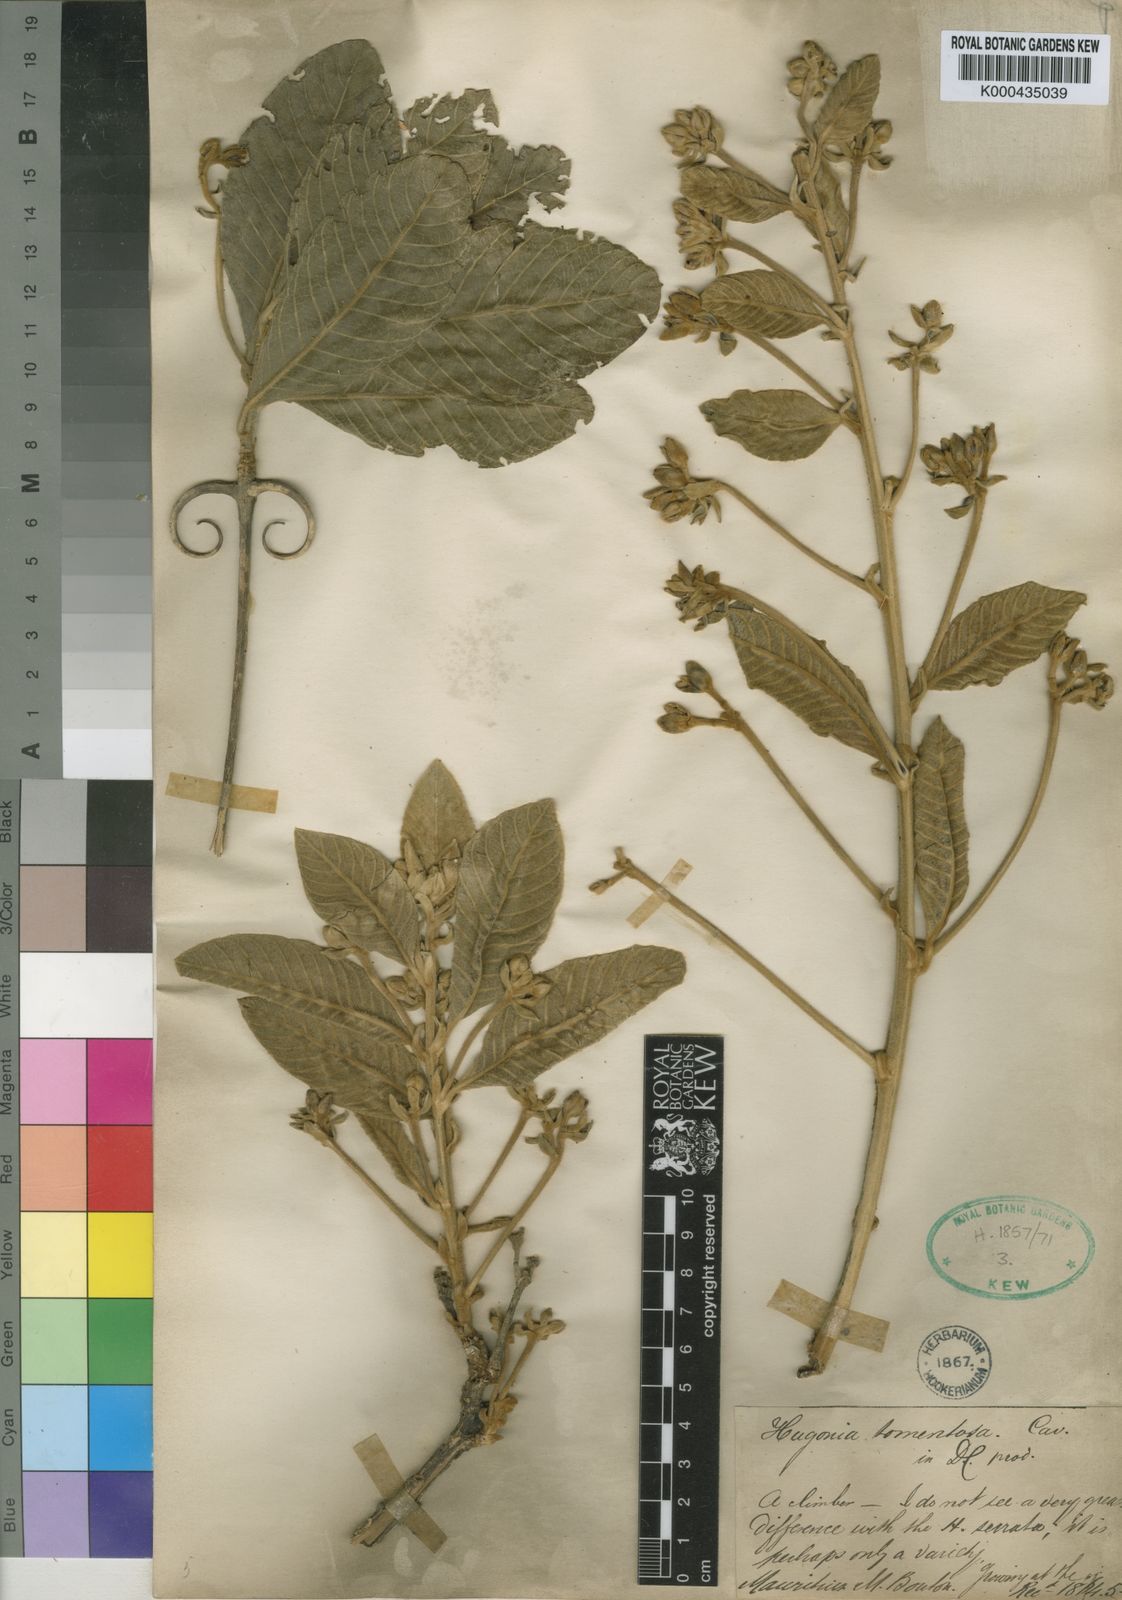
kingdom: Plantae
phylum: Tracheophyta
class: Magnoliopsida
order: Malpighiales
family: Linaceae
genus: Hugonia
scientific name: Hugonia tomentosa
